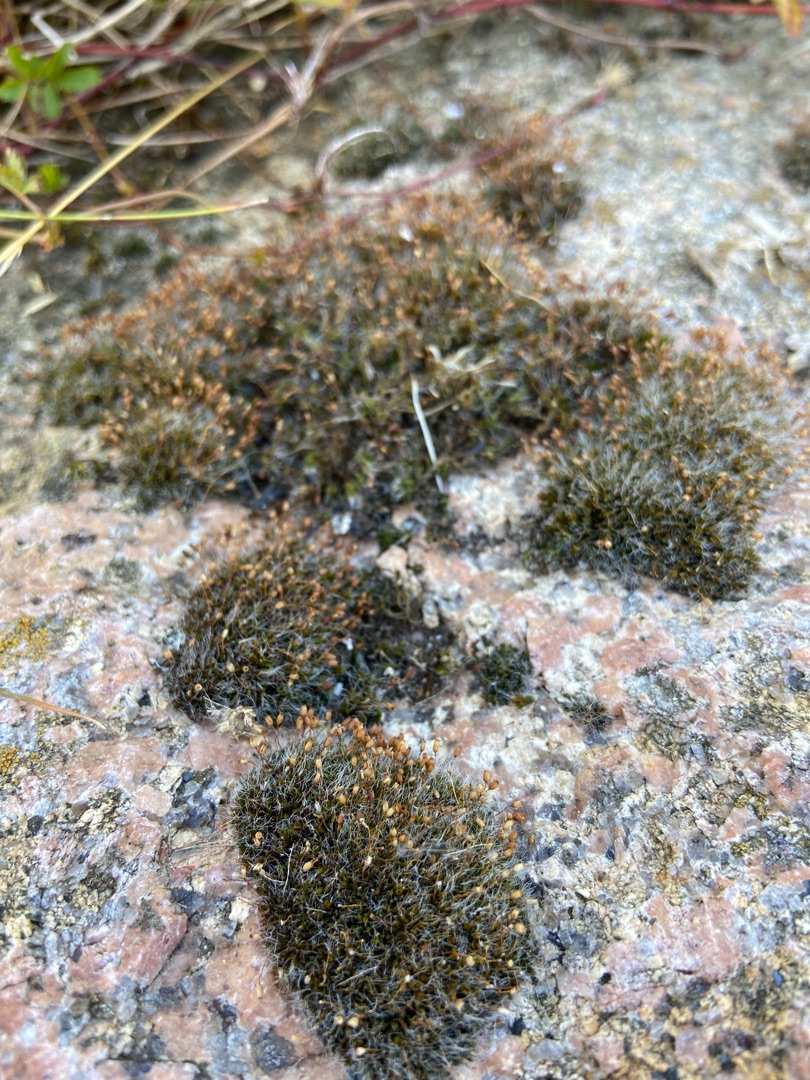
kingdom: Plantae
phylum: Bryophyta
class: Bryopsida
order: Grimmiales
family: Grimmiaceae
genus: Grimmia
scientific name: Grimmia pulvinata
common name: Pude-gråmos
